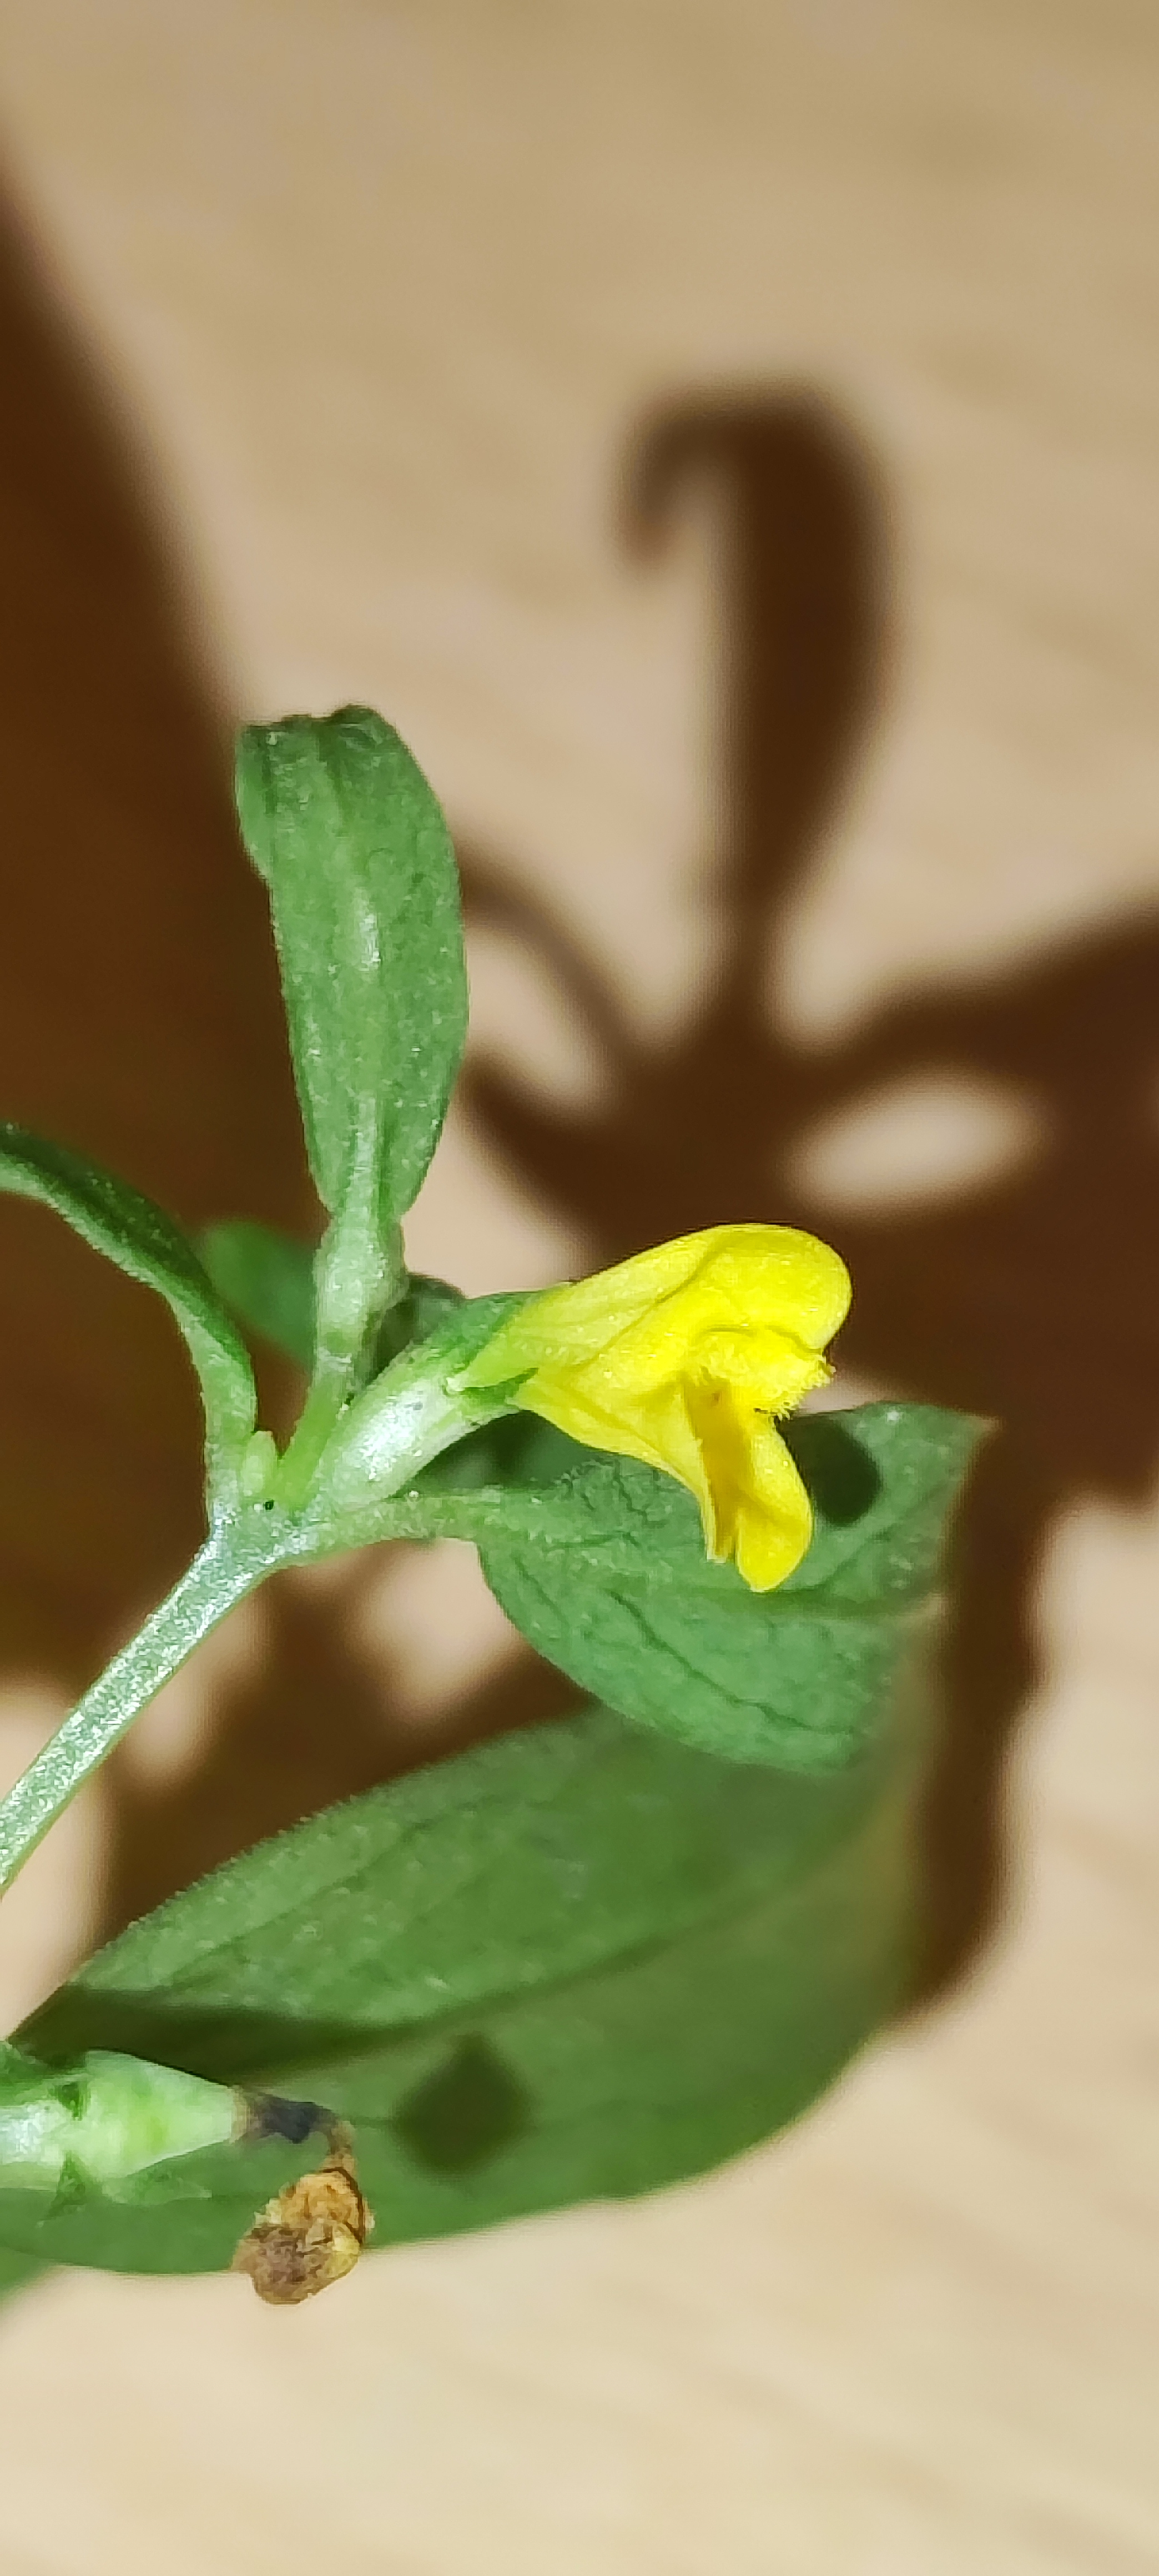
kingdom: Plantae
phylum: Tracheophyta
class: Magnoliopsida
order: Lamiales
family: Orobanchaceae
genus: Melampyrum
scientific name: Melampyrum sylvaticum
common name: Skov-kohvede
